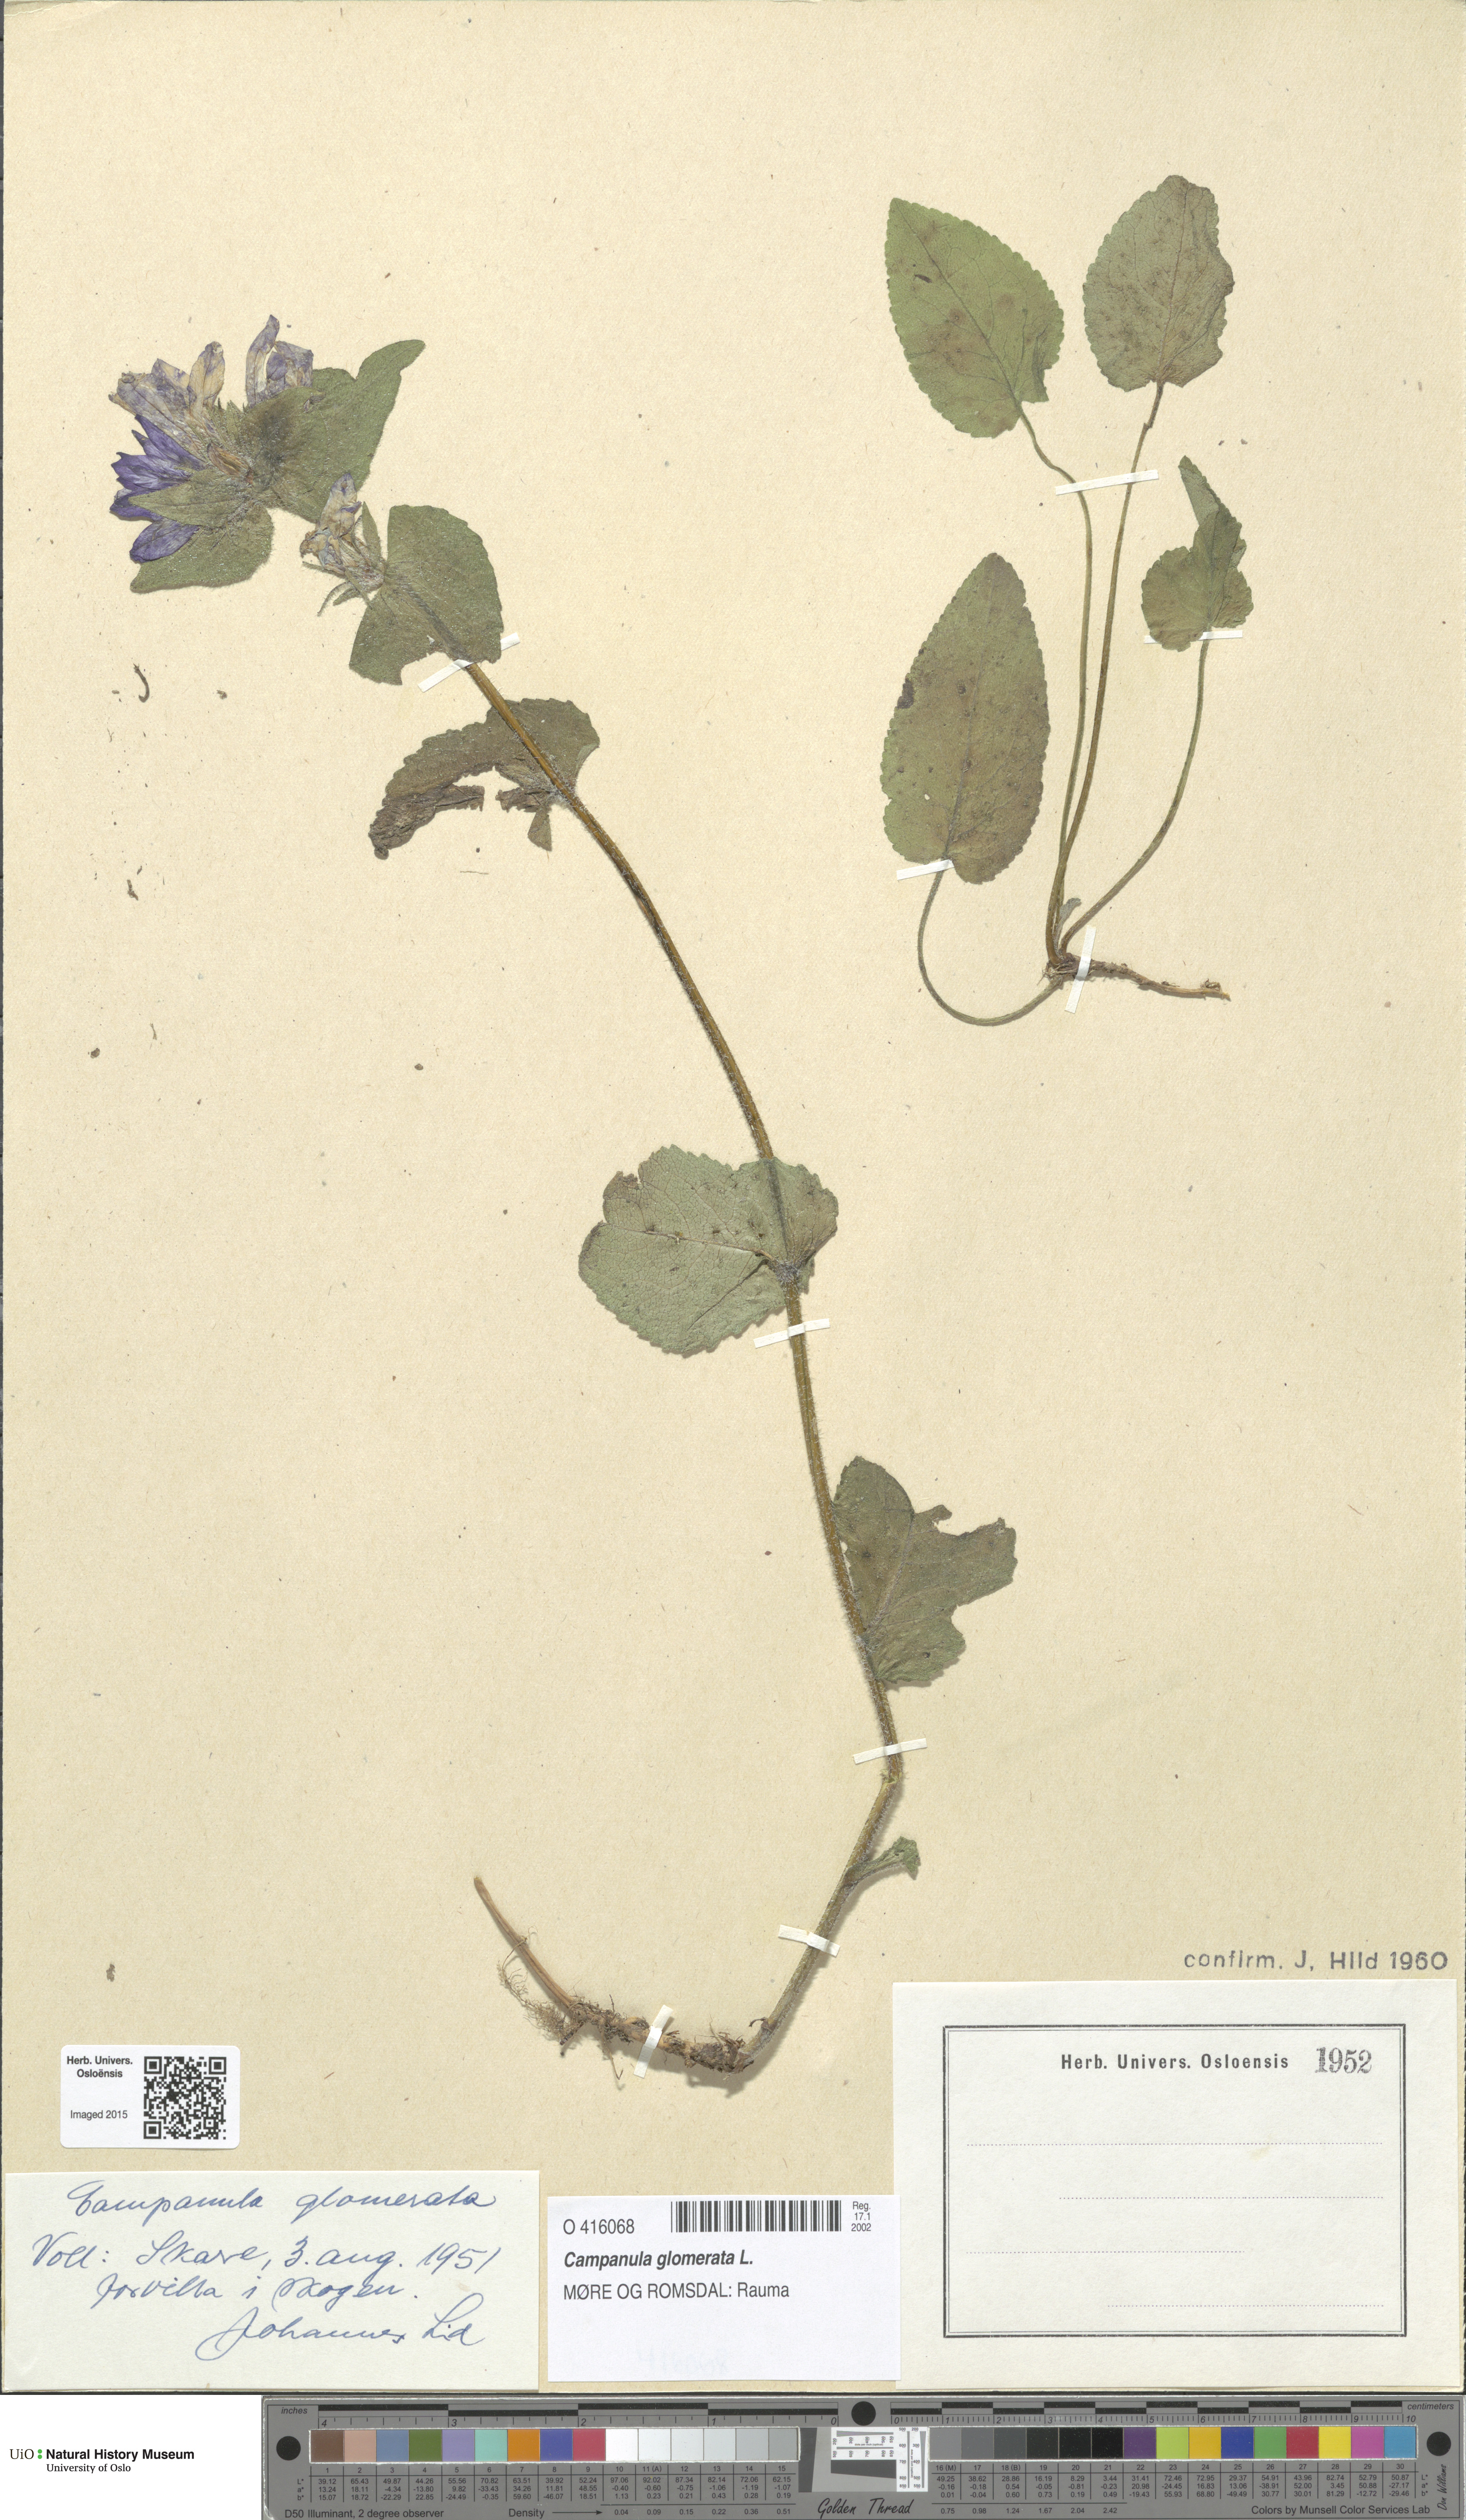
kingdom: Plantae
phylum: Tracheophyta
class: Magnoliopsida
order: Asterales
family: Campanulaceae
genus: Campanula
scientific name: Campanula glomerata
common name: Clustered bellflower
